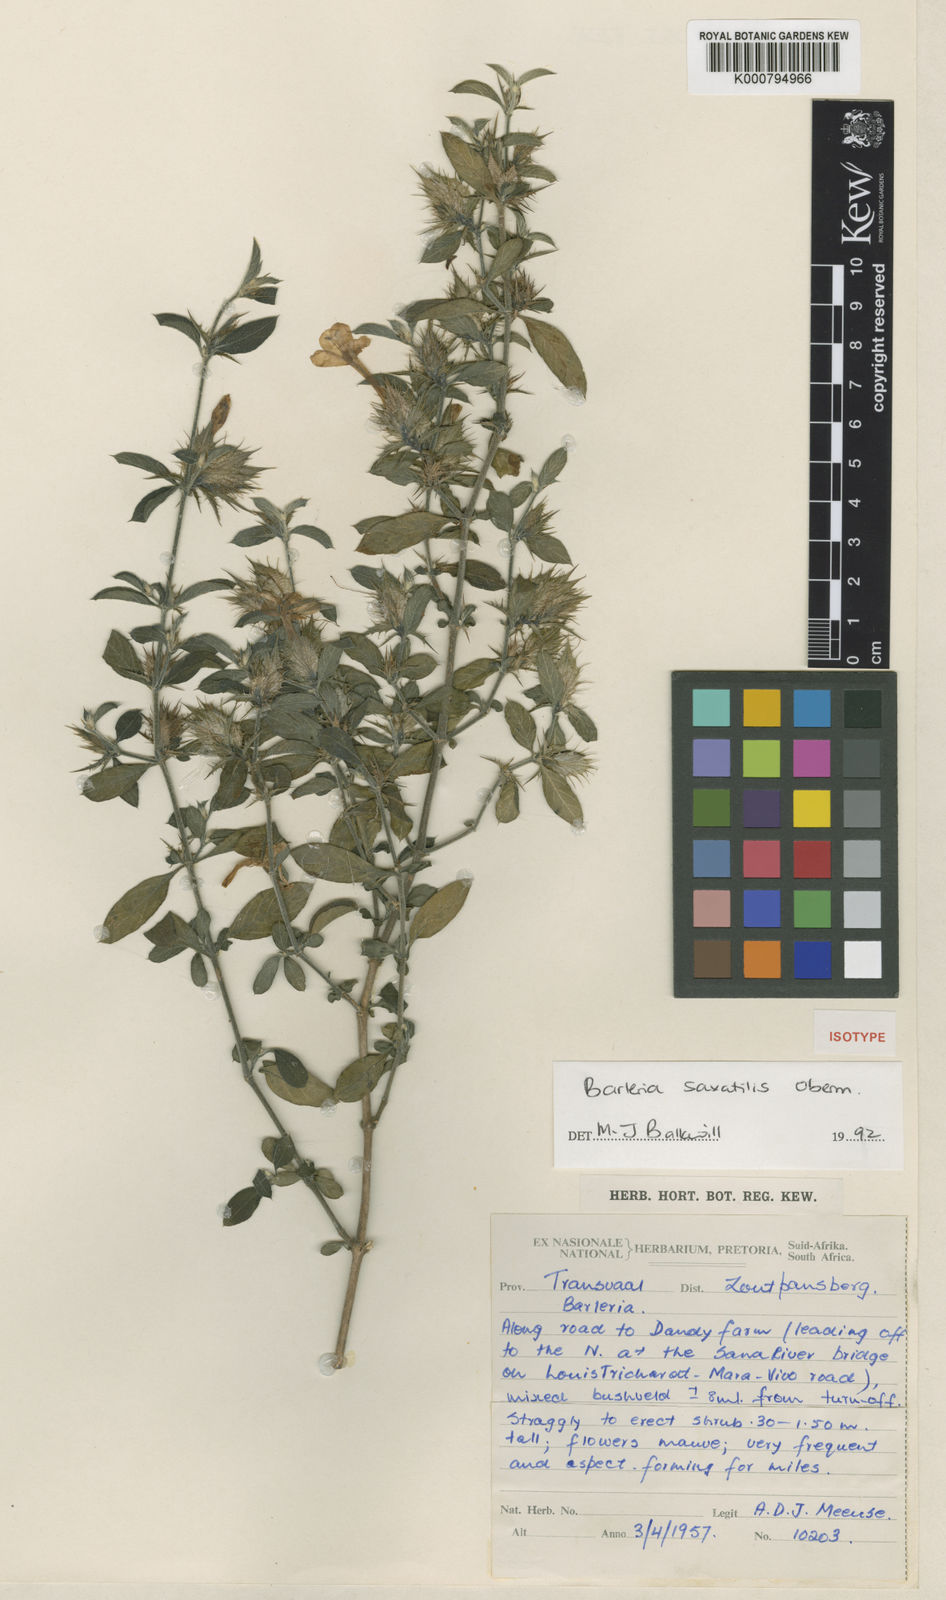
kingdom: Plantae
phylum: Tracheophyta
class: Magnoliopsida
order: Lamiales
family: Acanthaceae
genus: Barleria
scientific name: Barleria saxatilis
